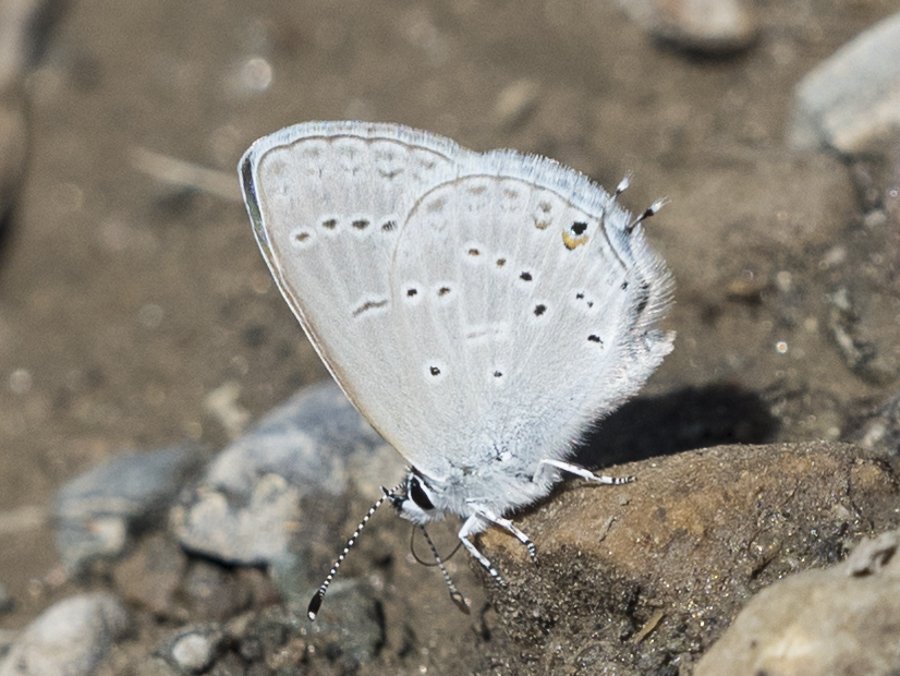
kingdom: Animalia
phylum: Arthropoda
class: Insecta
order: Lepidoptera
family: Lycaenidae
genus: Elkalyce
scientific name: Elkalyce amyntula
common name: Western Tailed-Blue
